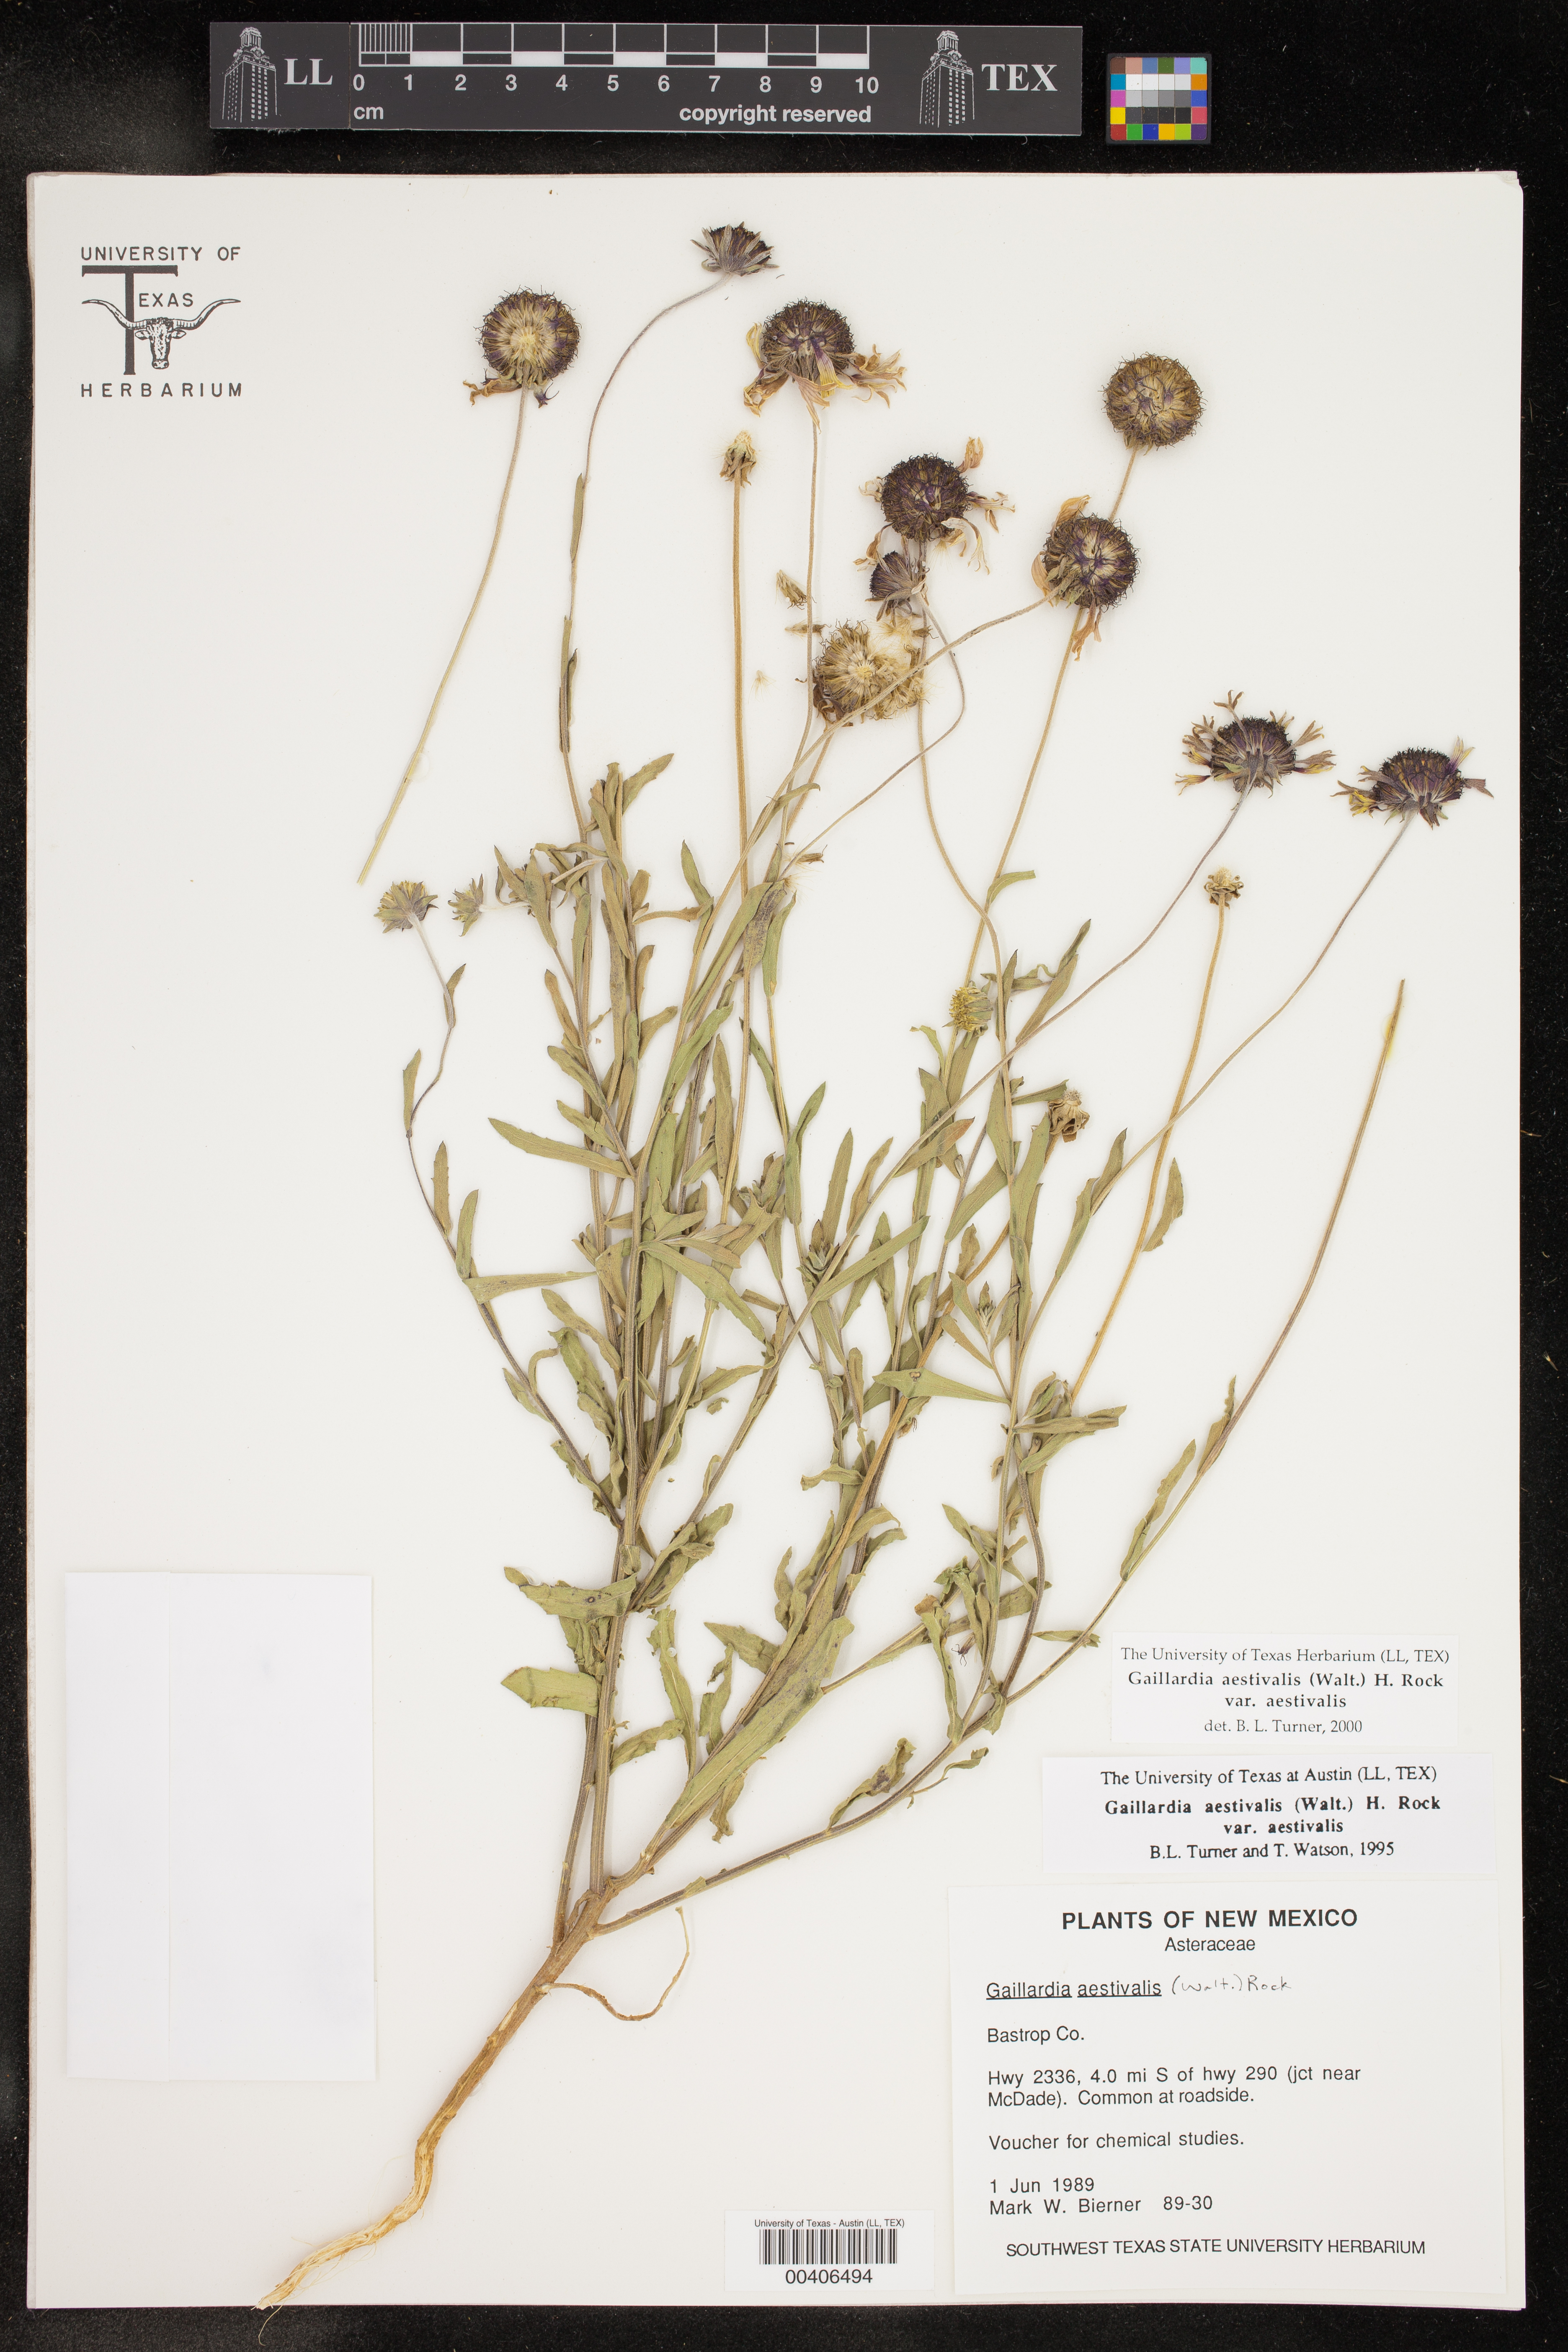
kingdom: Plantae
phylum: Tracheophyta
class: Magnoliopsida
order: Asterales
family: Asteraceae
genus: Gaillardia
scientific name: Gaillardia aestivalis
